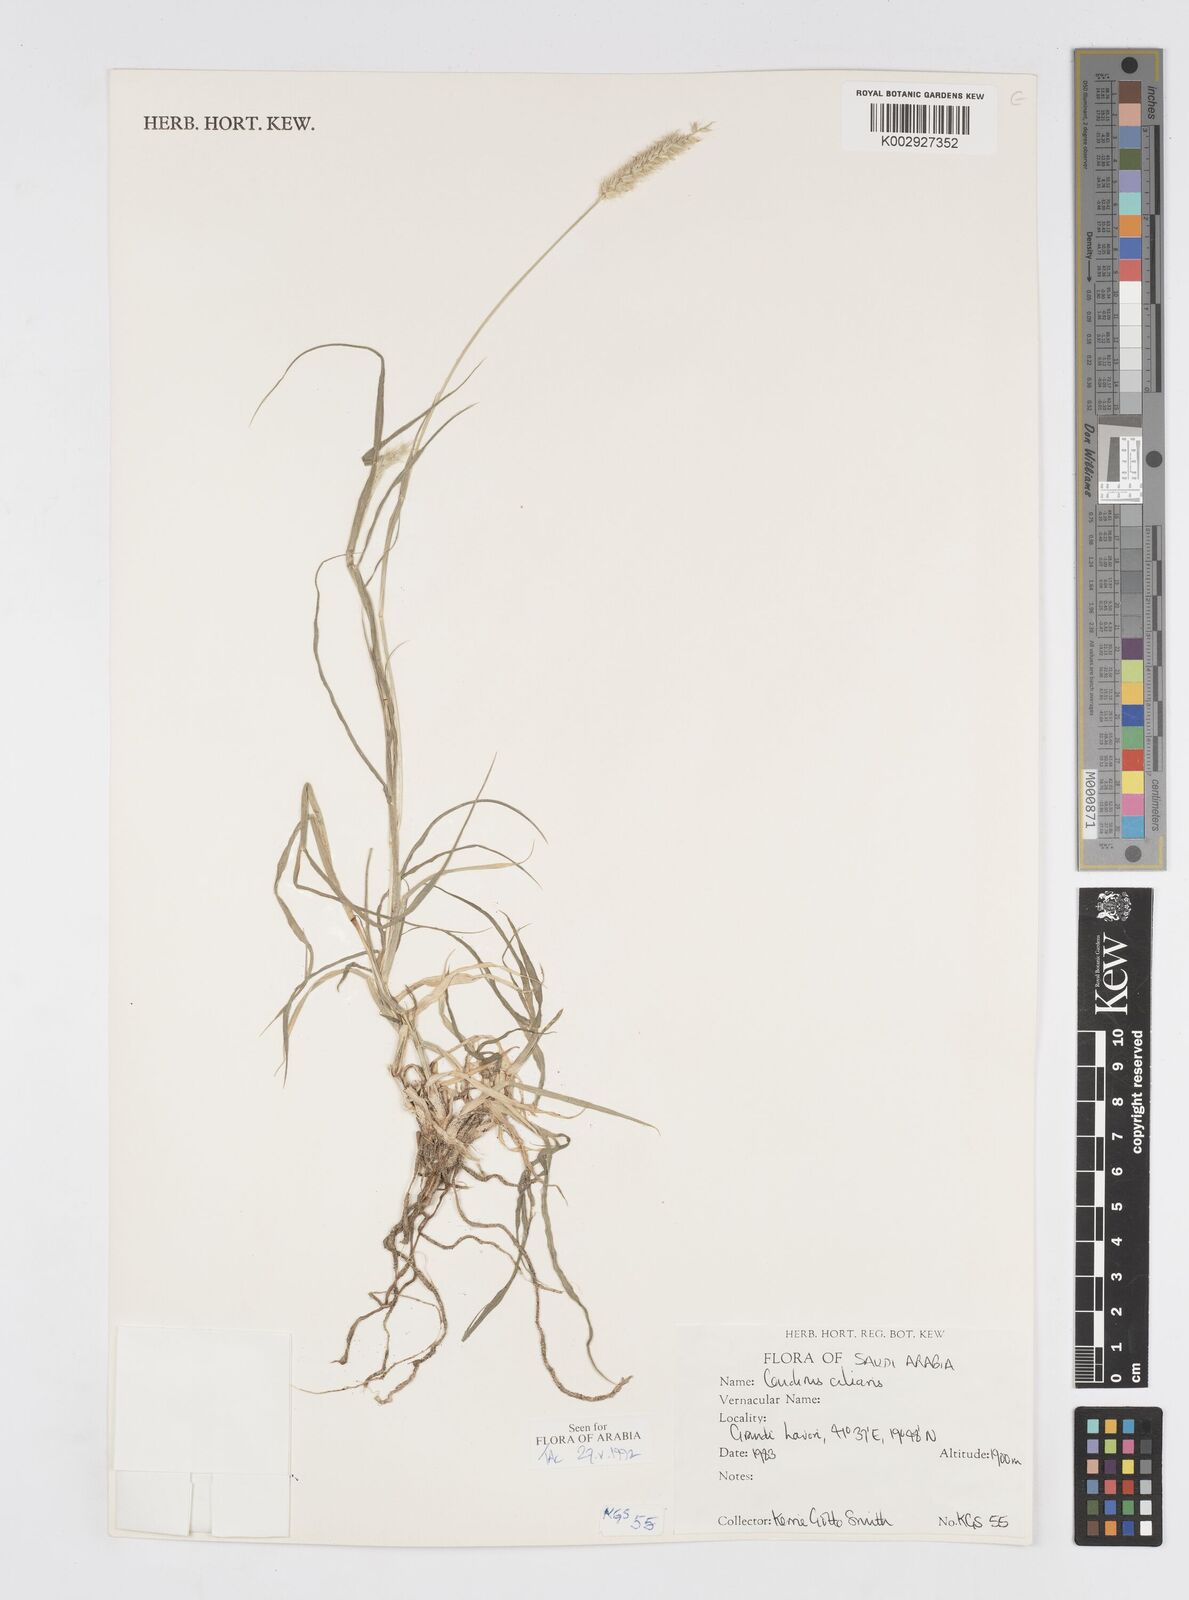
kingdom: Plantae
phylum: Tracheophyta
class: Liliopsida
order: Poales
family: Poaceae
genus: Cenchrus
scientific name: Cenchrus ciliaris
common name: Buffelgrass
